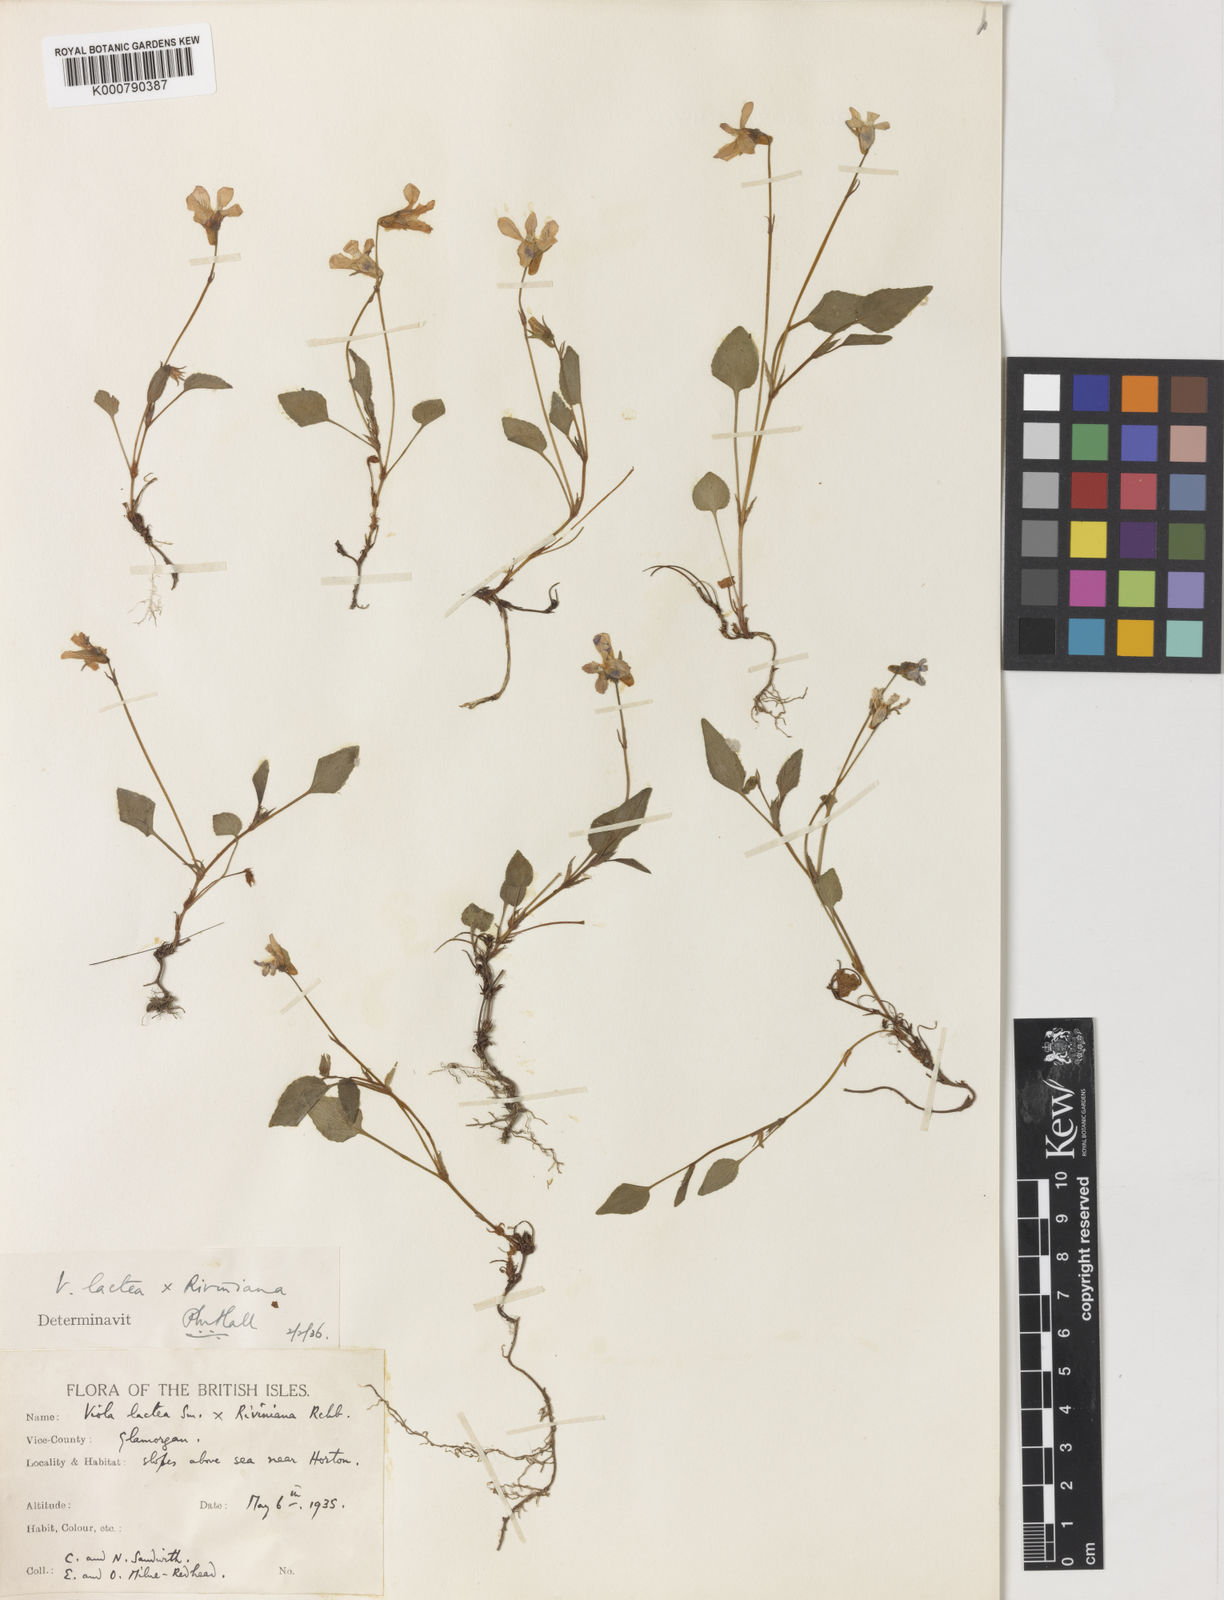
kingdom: Plantae
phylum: Tracheophyta
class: Magnoliopsida
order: Malpighiales
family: Violaceae
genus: Viola
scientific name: Viola lactea
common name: Pale dog-violet
